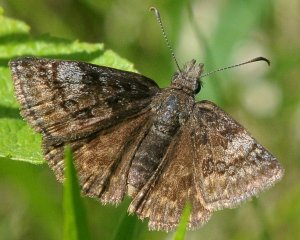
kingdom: Animalia
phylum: Arthropoda
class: Insecta
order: Lepidoptera
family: Hesperiidae
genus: Erynnis
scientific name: Erynnis icelus
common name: Dreamy Duskywing
